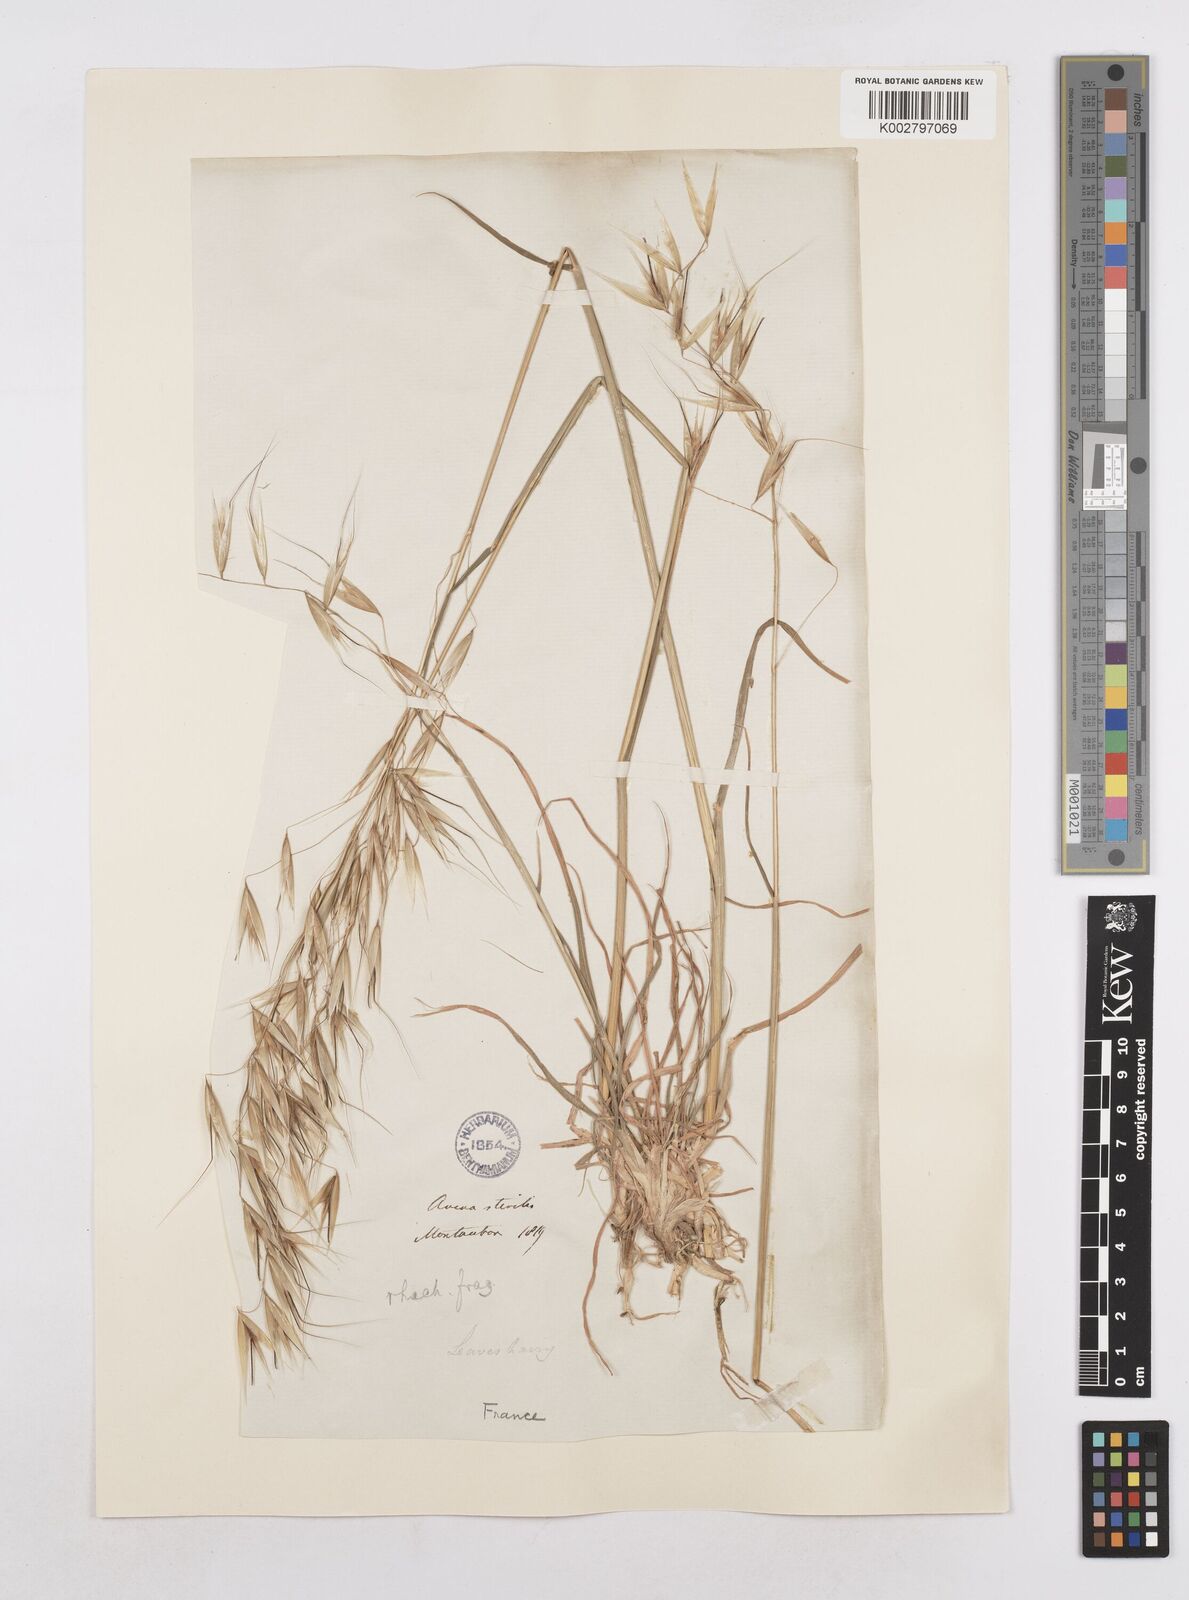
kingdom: Plantae
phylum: Tracheophyta
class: Liliopsida
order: Poales
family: Poaceae
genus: Avena
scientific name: Avena
